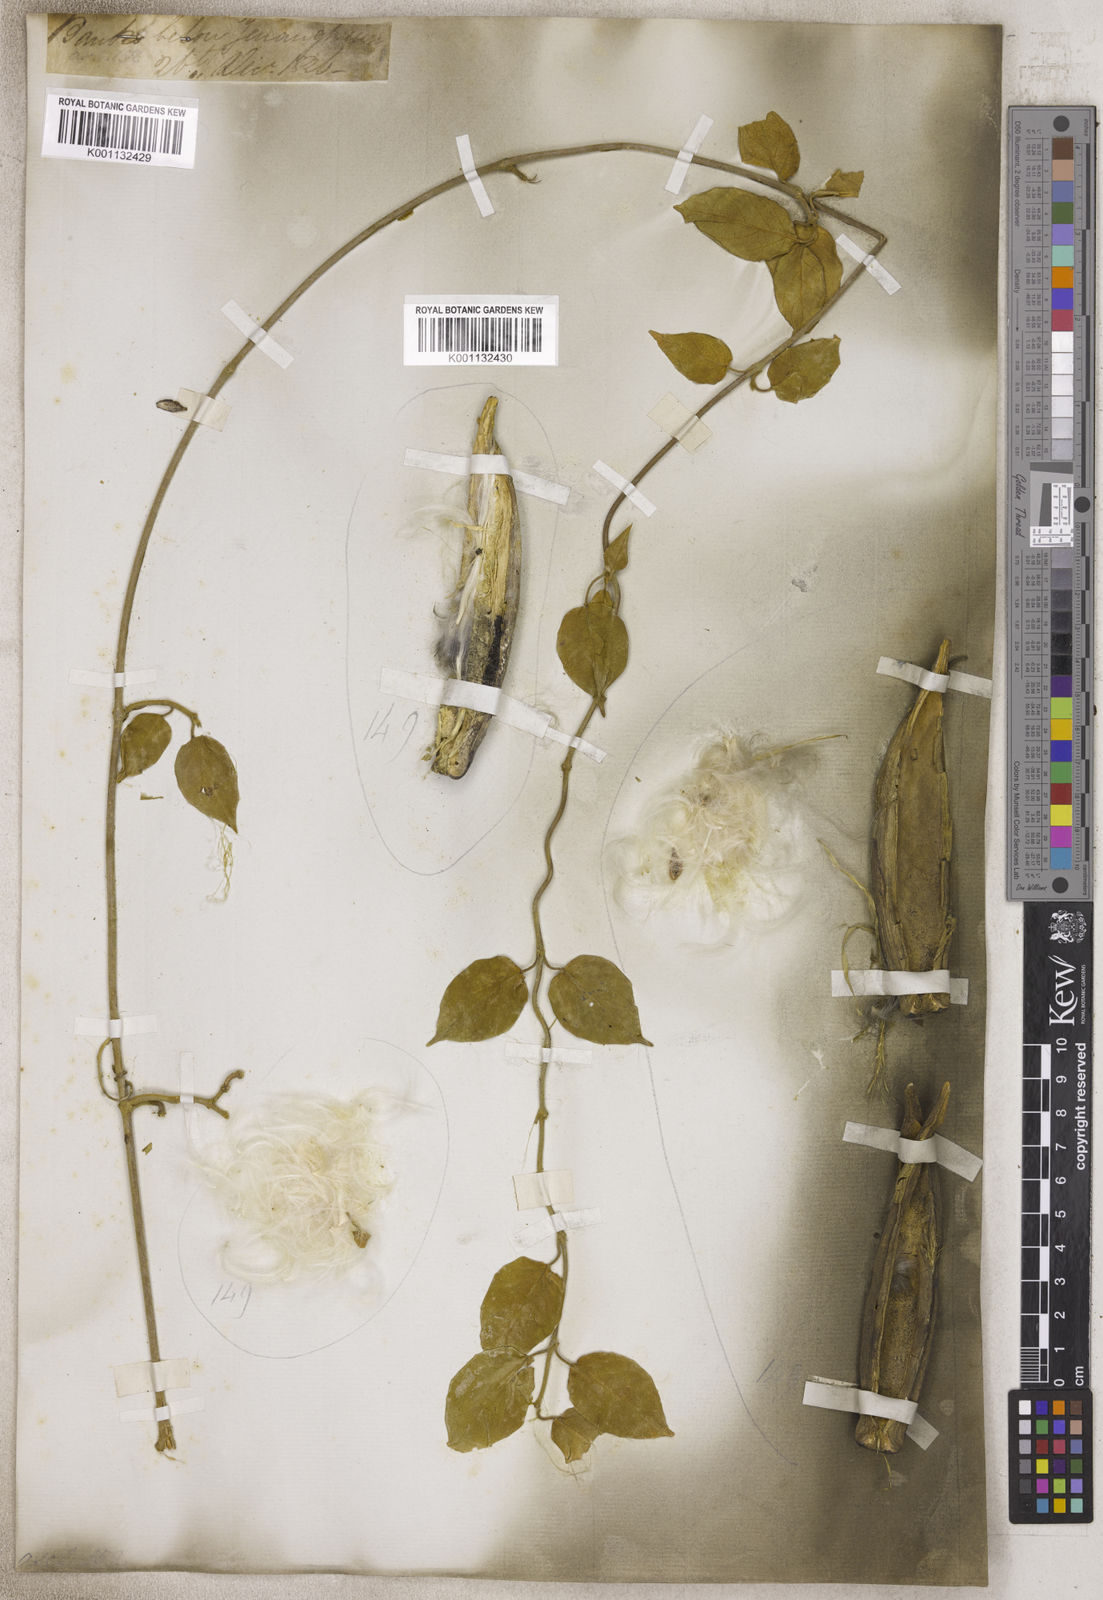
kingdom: Plantae
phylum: Tracheophyta
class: Magnoliopsida
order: Gentianales
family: Asclepiadaceae
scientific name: Asclepiadaceae
